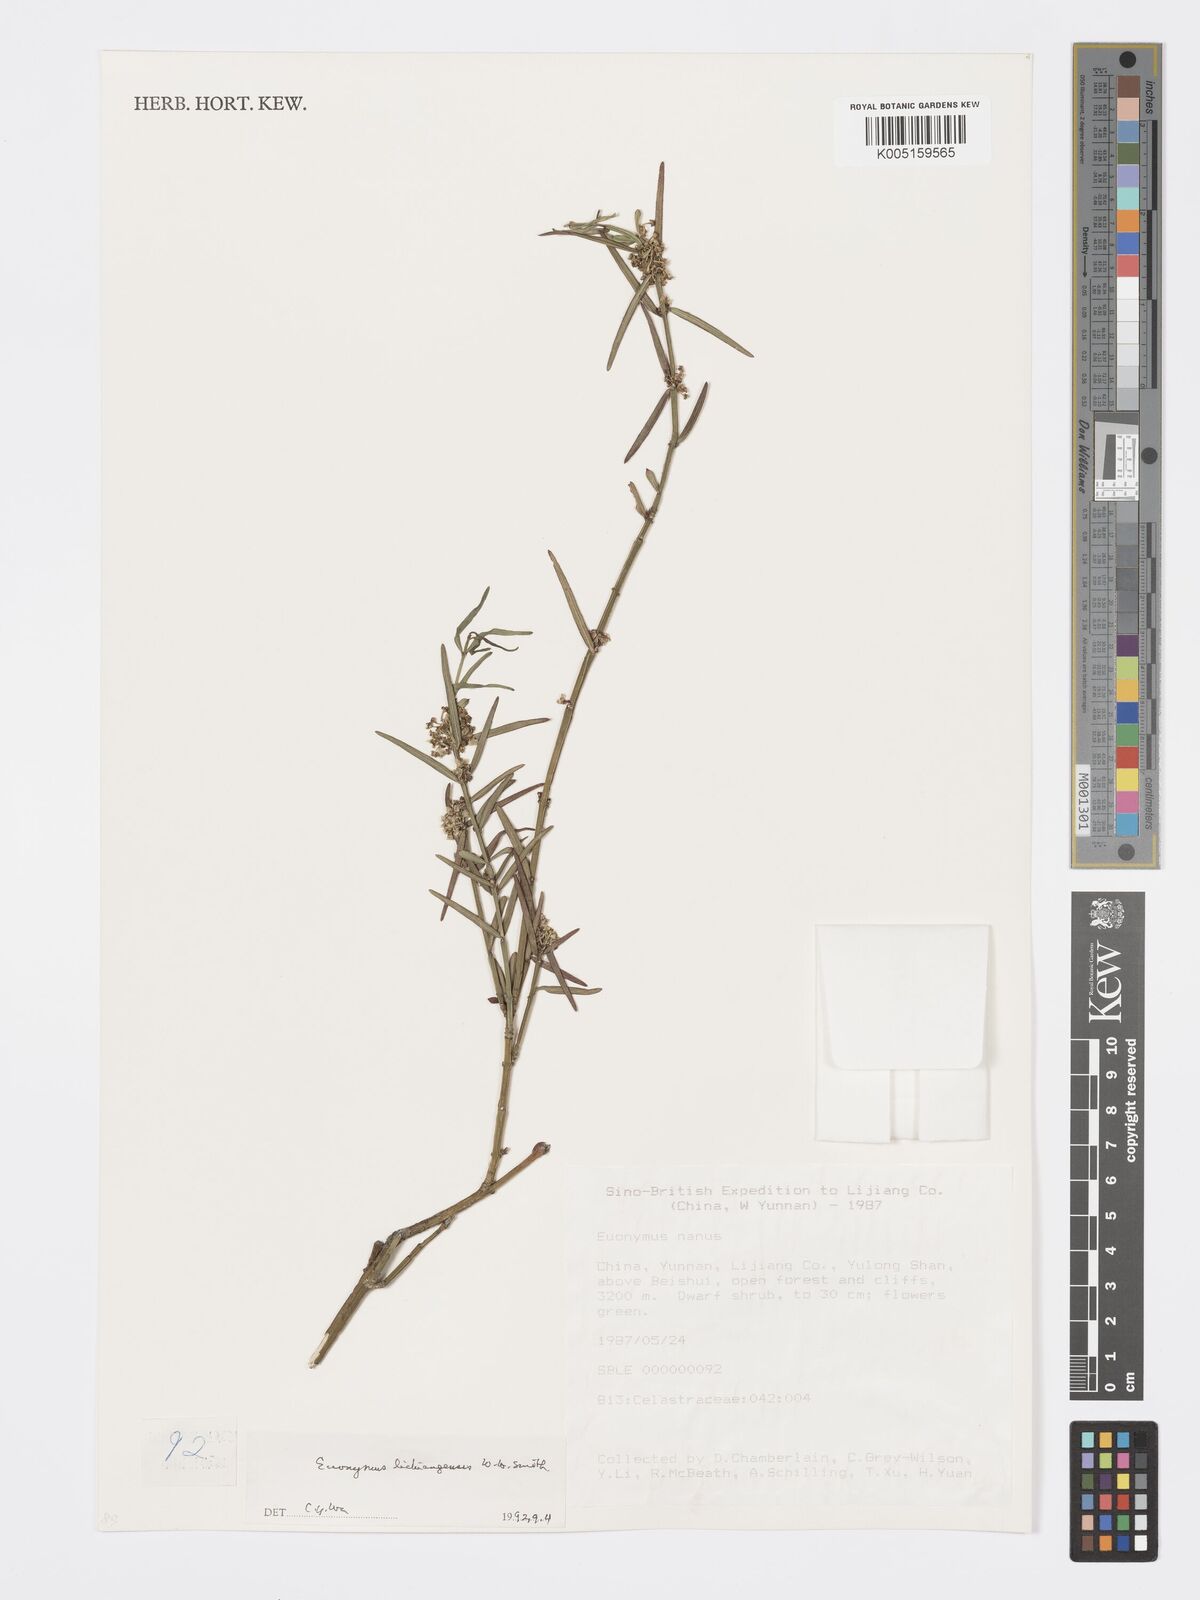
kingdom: Plantae
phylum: Tracheophyta
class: Magnoliopsida
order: Celastrales
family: Celastraceae
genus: Euonymus
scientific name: Euonymus lichiangensis
